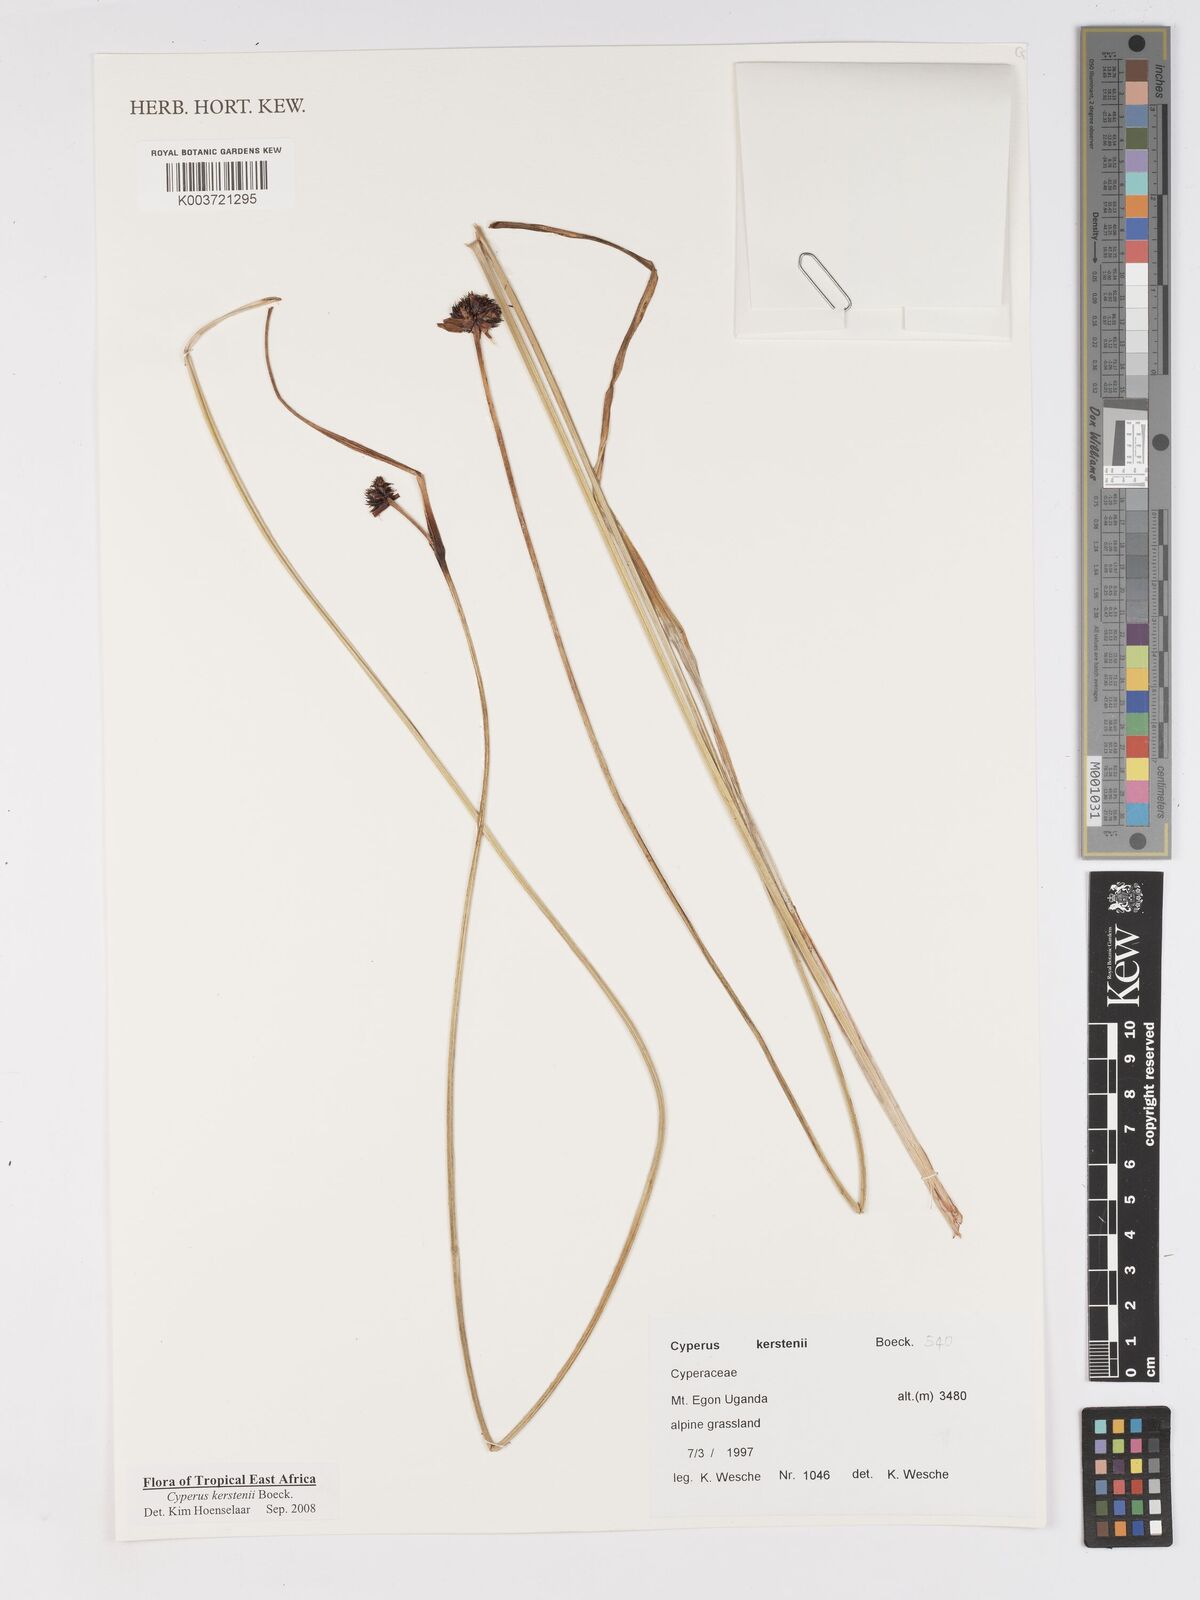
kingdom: Plantae
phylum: Tracheophyta
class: Liliopsida
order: Poales
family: Cyperaceae
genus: Cyperus
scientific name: Cyperus kerstenii
